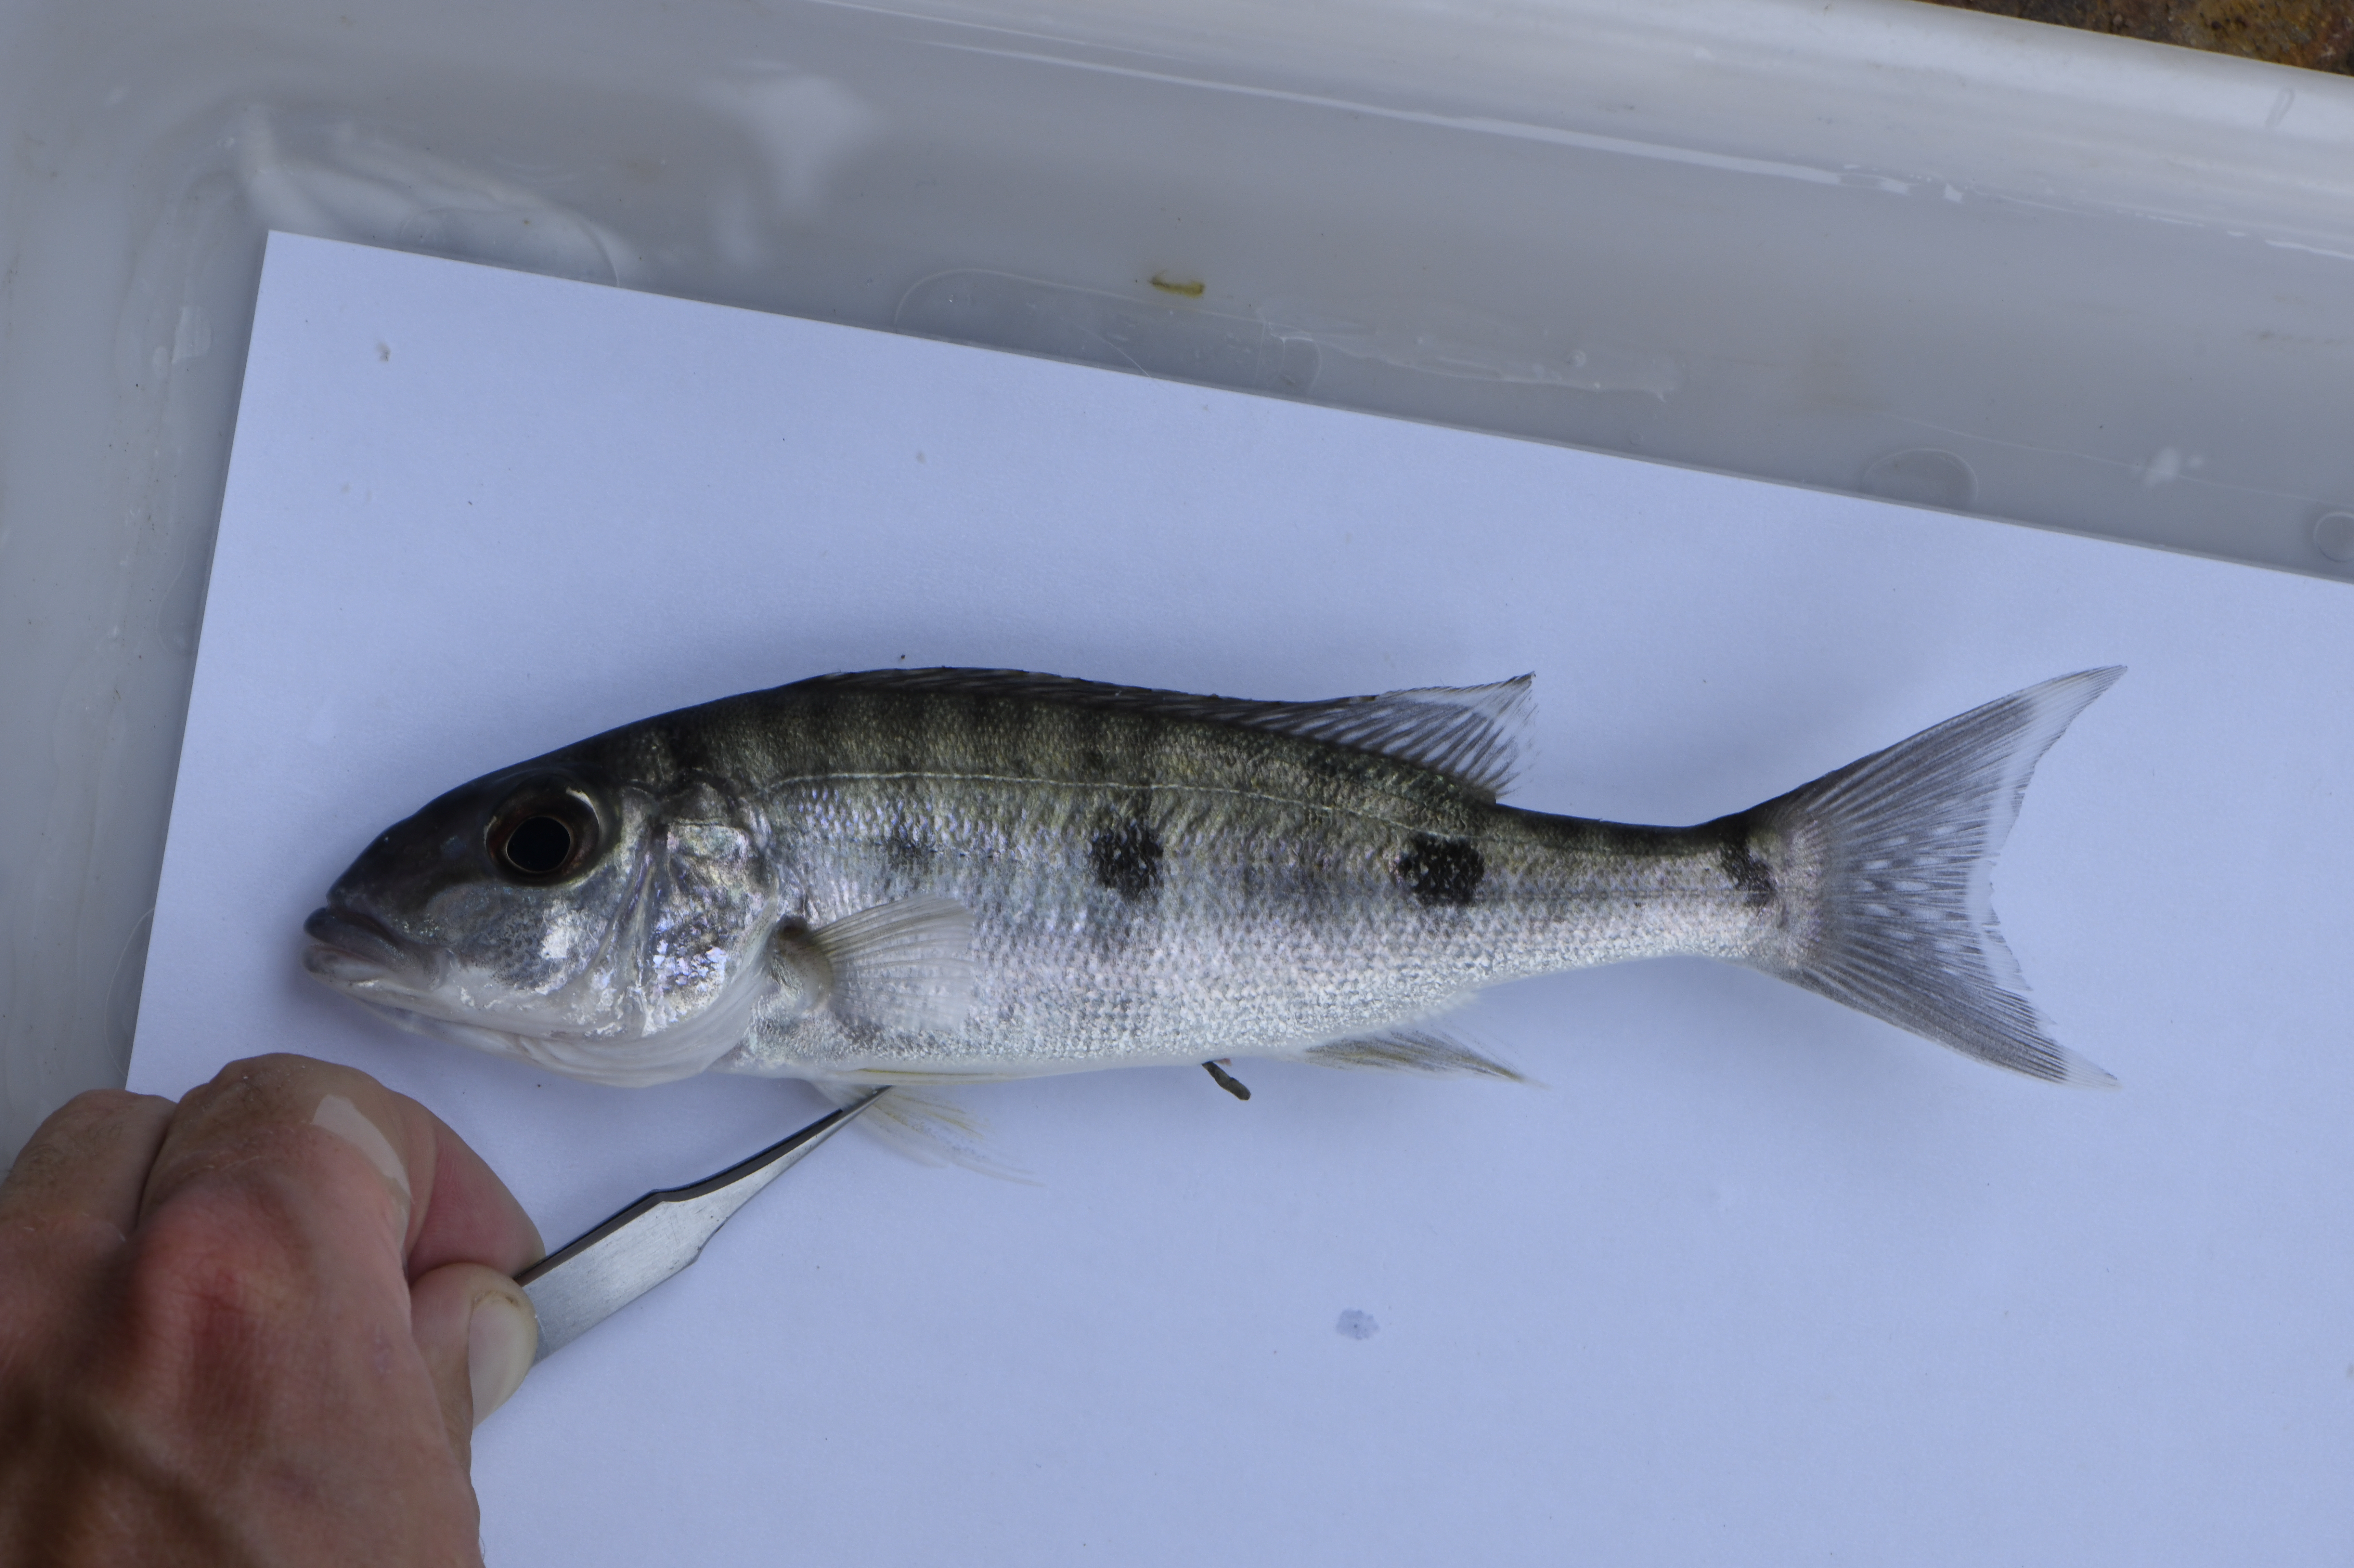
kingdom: Animalia
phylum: Chordata
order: Perciformes
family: Cichlidae
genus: Boulengerochromis
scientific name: Boulengerochromis microlepis
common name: Giant cichlid
